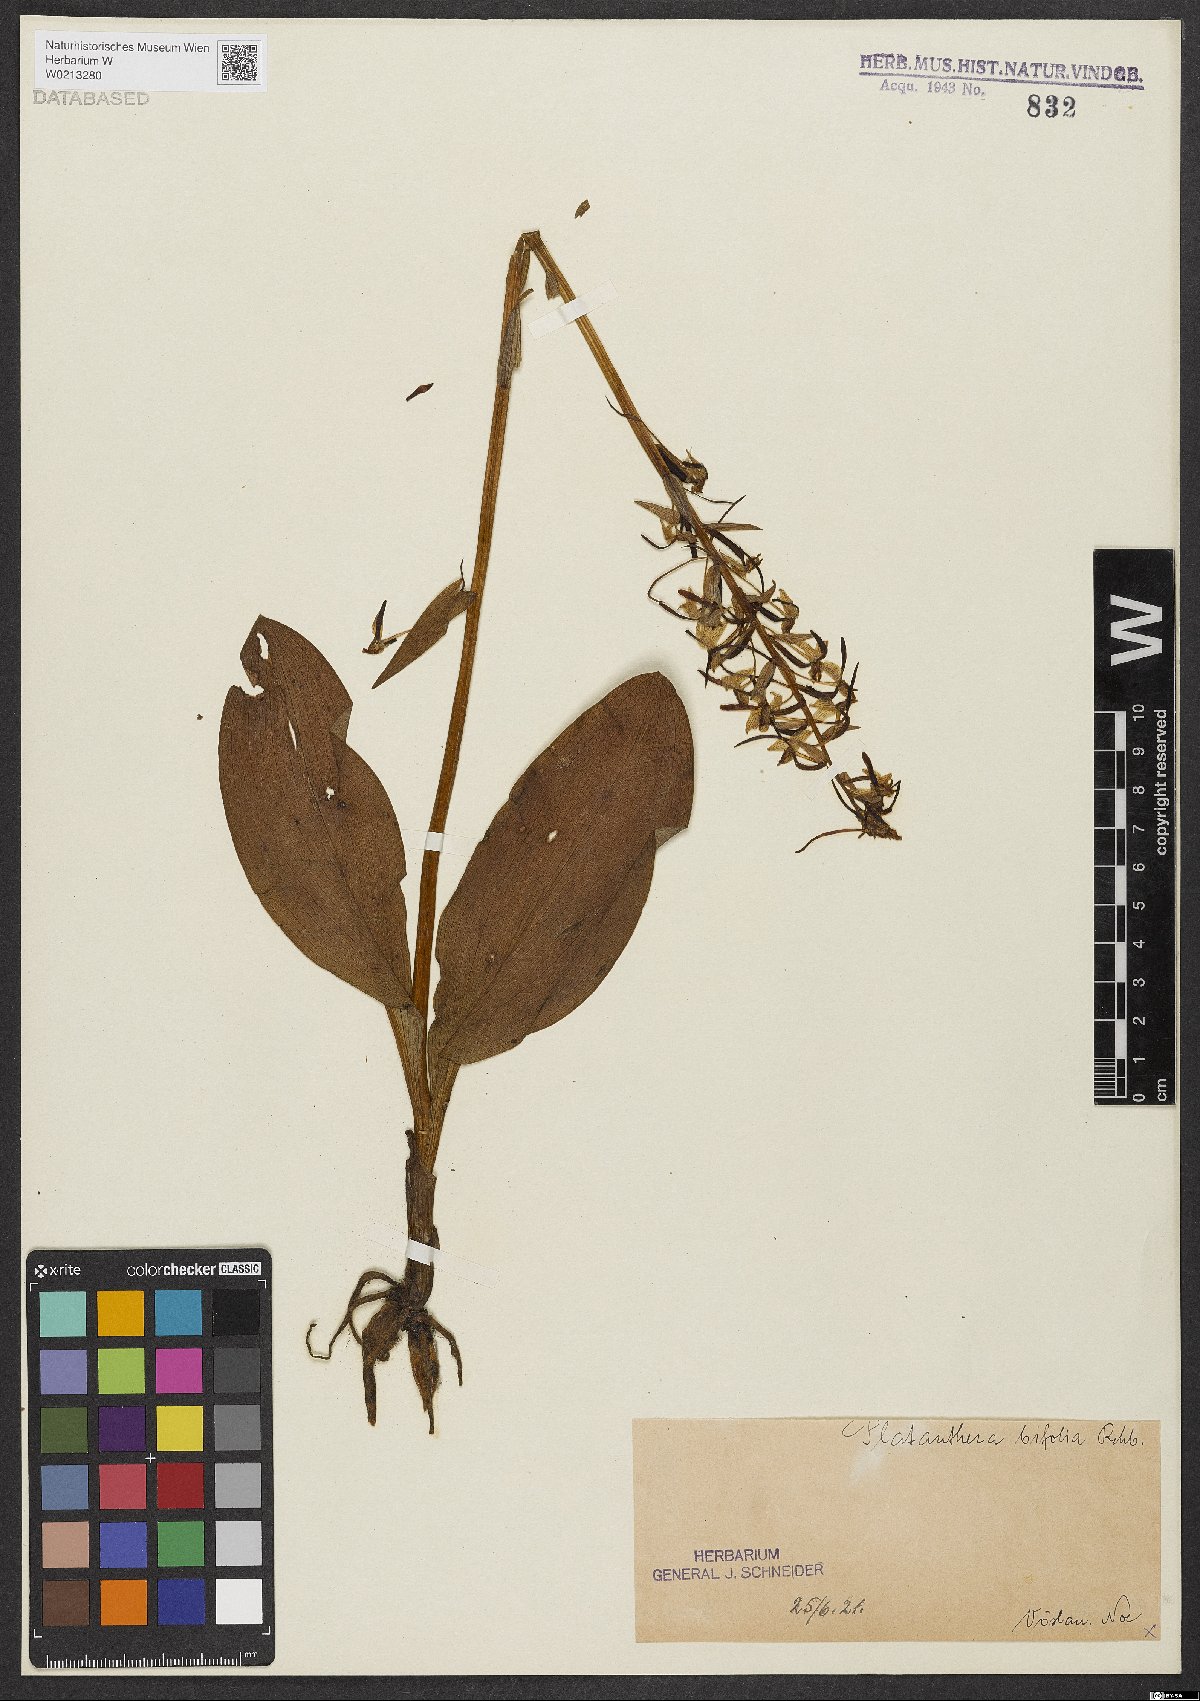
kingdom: Plantae
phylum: Tracheophyta
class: Liliopsida
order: Asparagales
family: Orchidaceae
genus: Platanthera
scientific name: Platanthera bifolia
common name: Lesser butterfly-orchid
